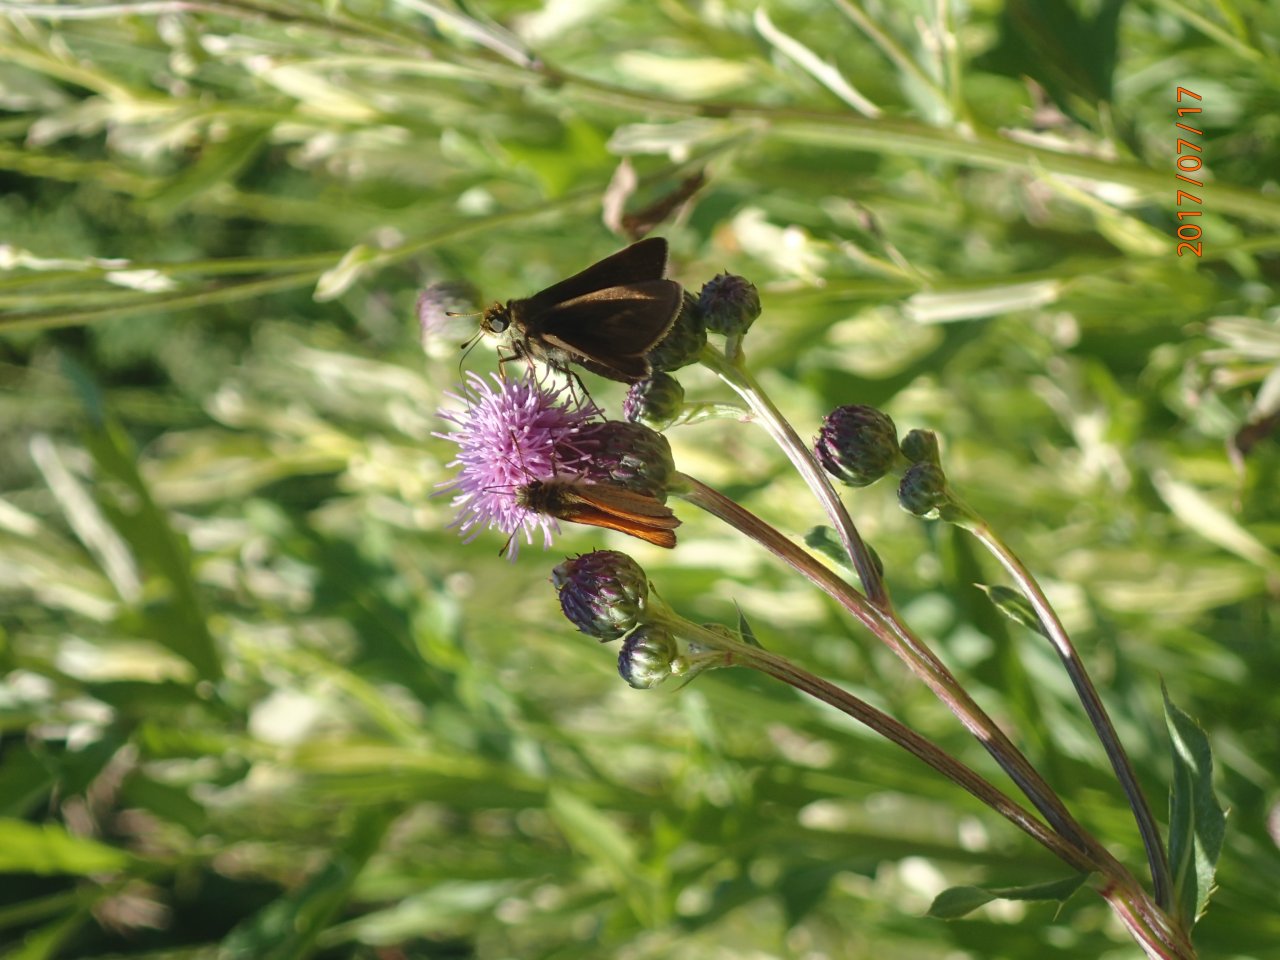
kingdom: Animalia
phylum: Arthropoda
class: Insecta
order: Lepidoptera
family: Hesperiidae
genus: Euphyes
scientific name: Euphyes vestris
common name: Dun Skipper
